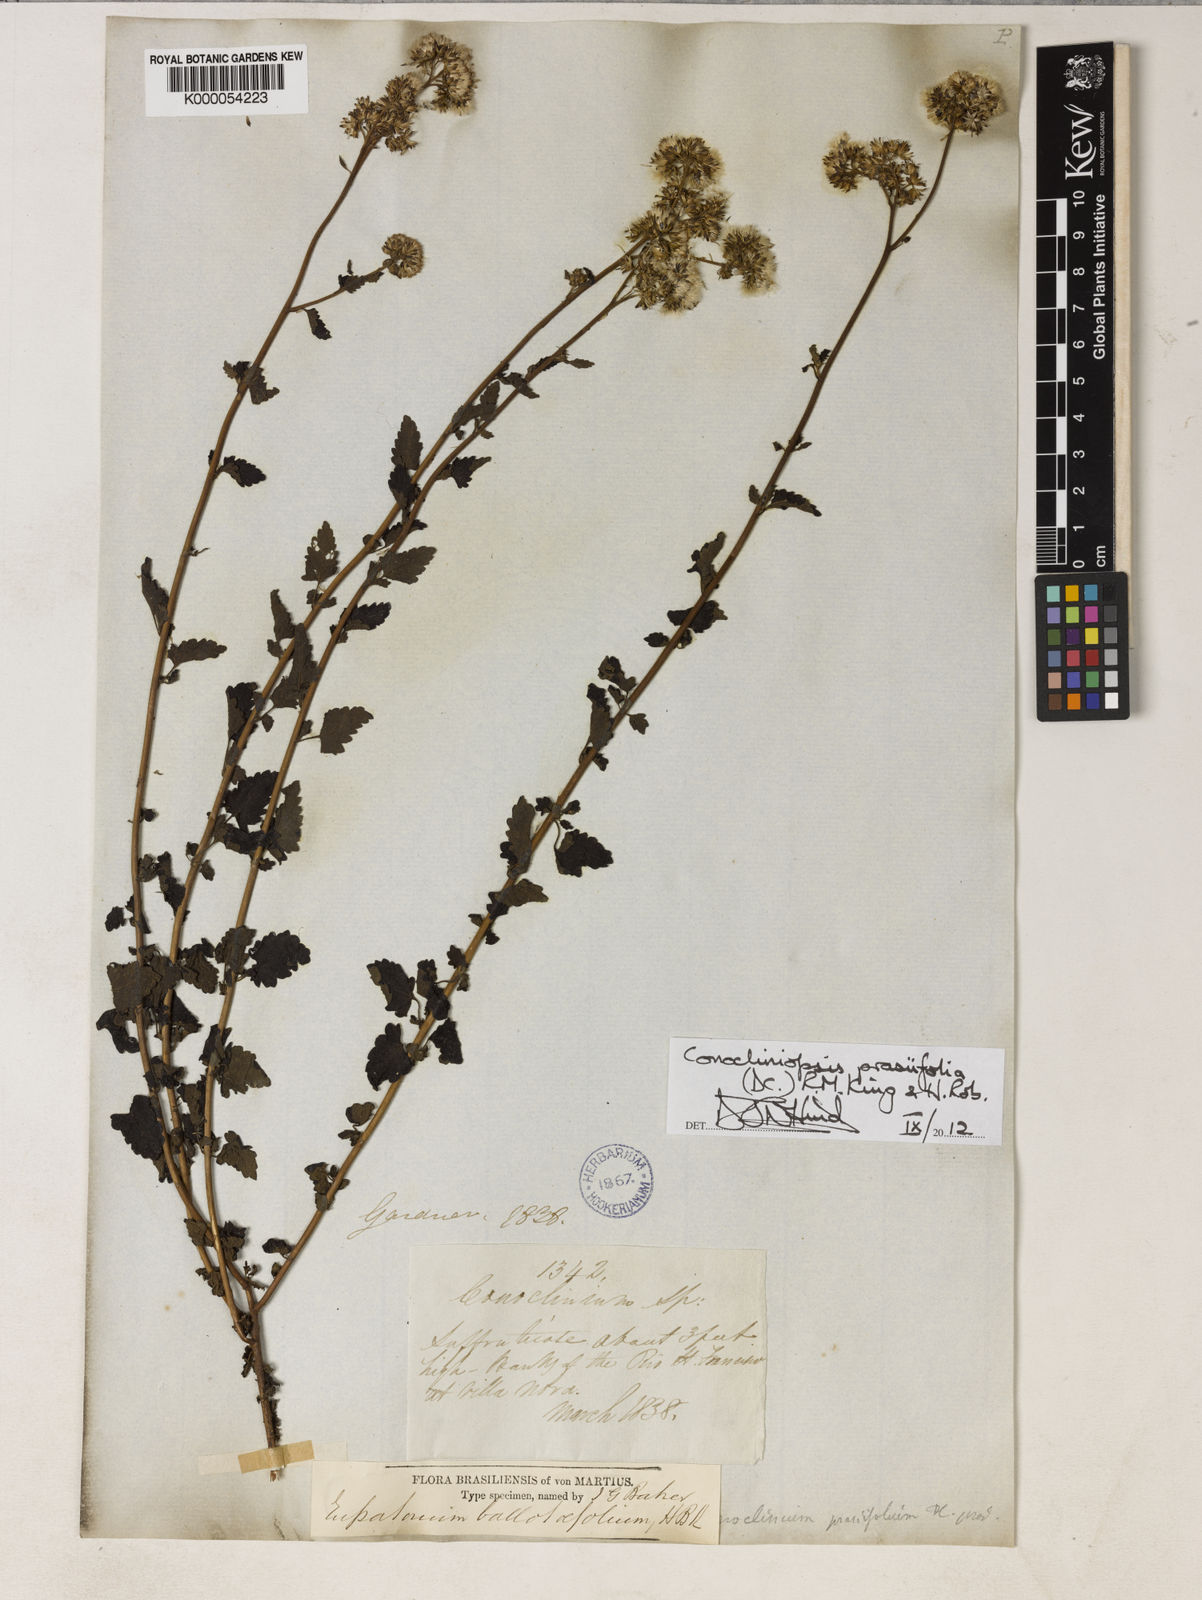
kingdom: Plantae
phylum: Tracheophyta
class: Magnoliopsida
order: Asterales
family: Asteraceae
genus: Conocliniopsis
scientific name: Conocliniopsis grossedentata
